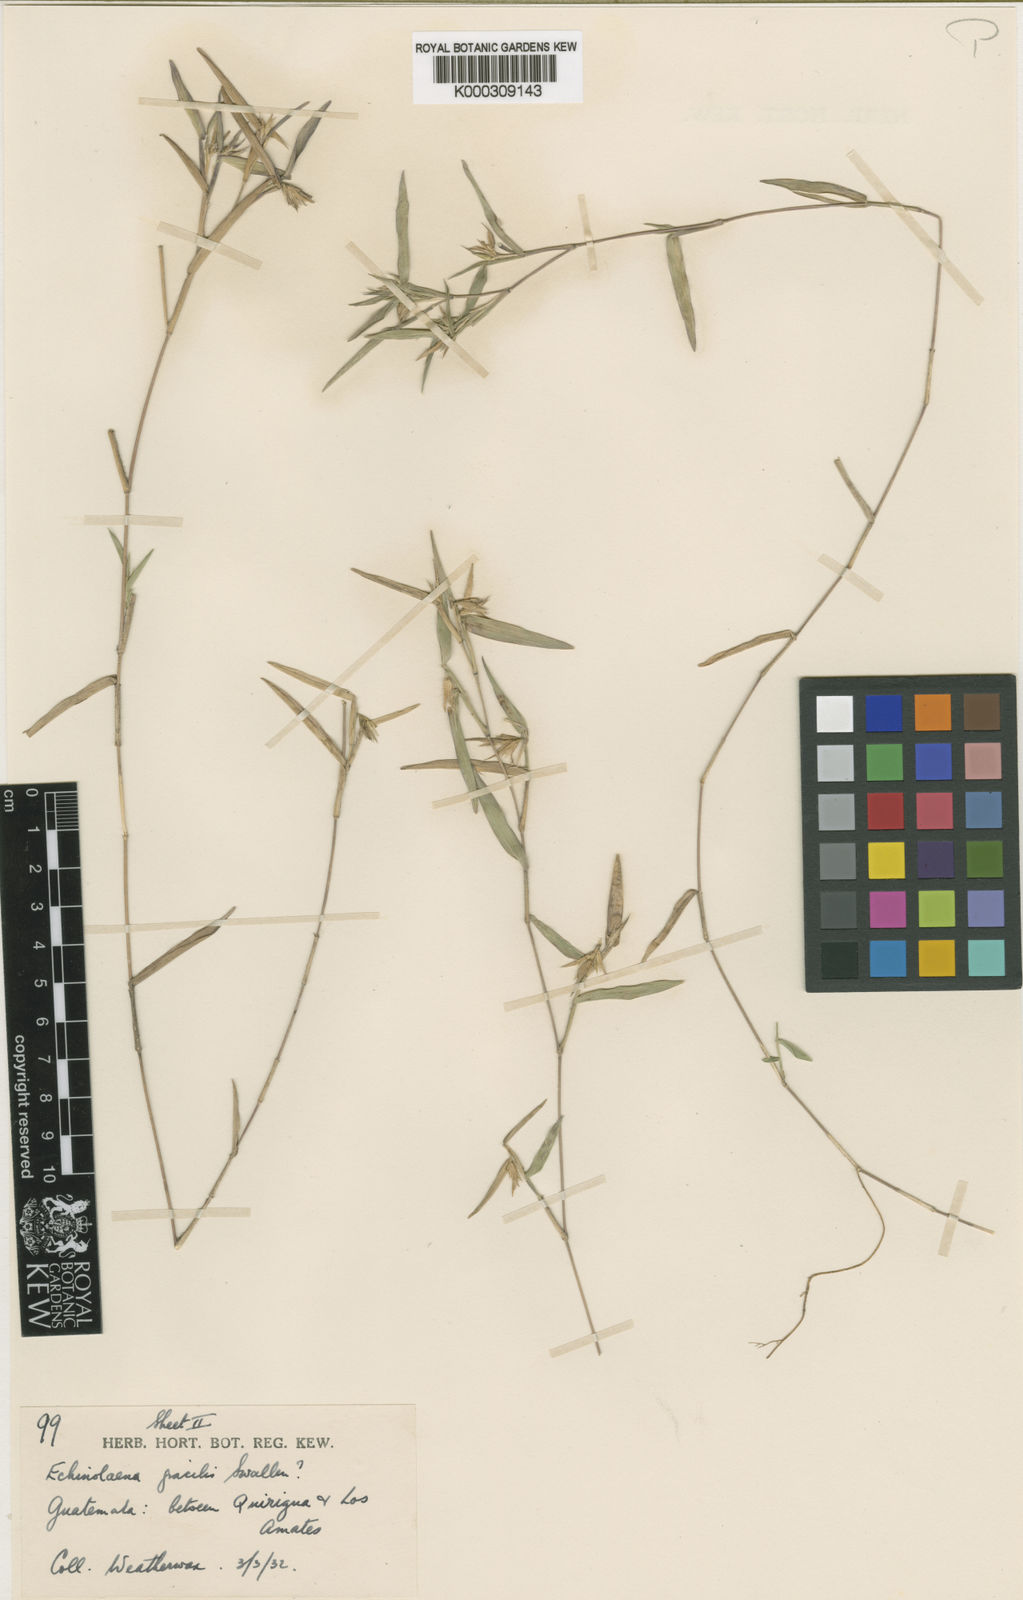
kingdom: Plantae
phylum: Tracheophyta
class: Liliopsida
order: Poales
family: Poaceae
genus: Echinolaena
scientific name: Echinolaena gracilis
